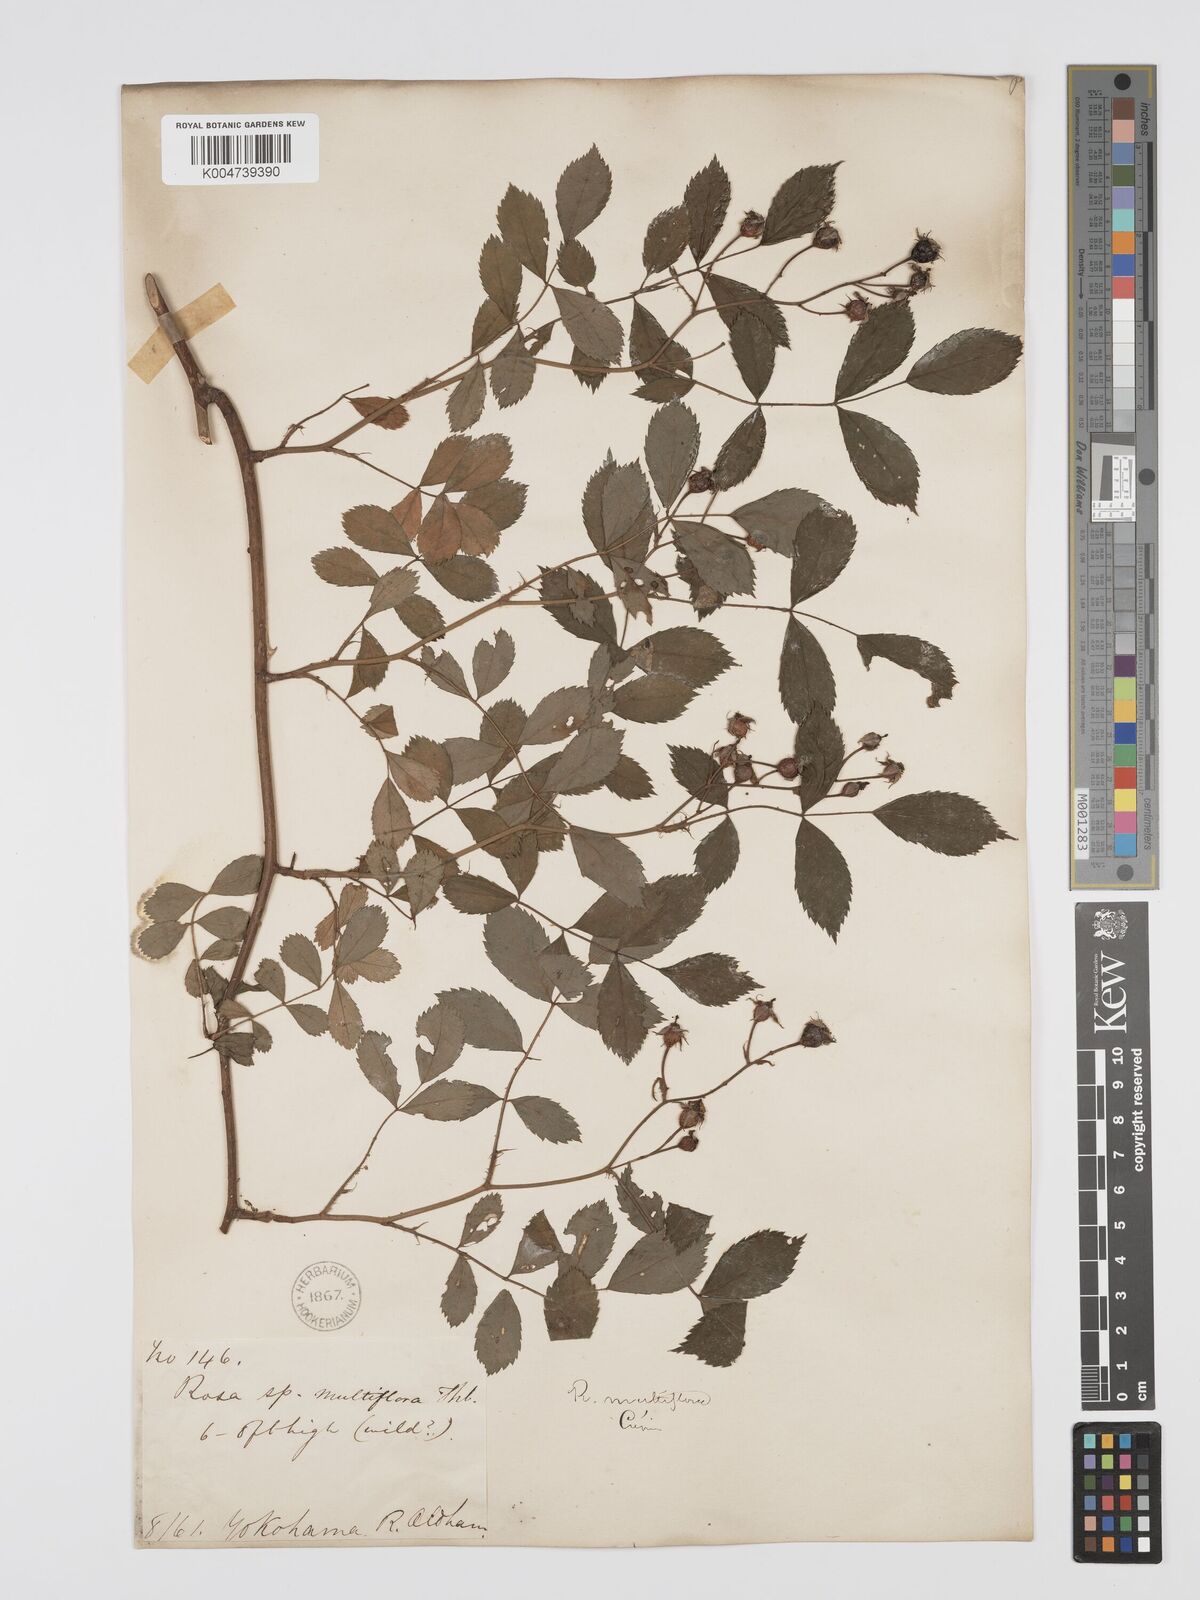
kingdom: Plantae
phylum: Tracheophyta
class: Magnoliopsida
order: Rosales
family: Rosaceae
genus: Rosa
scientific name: Rosa multiflora
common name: Multiflora rose
